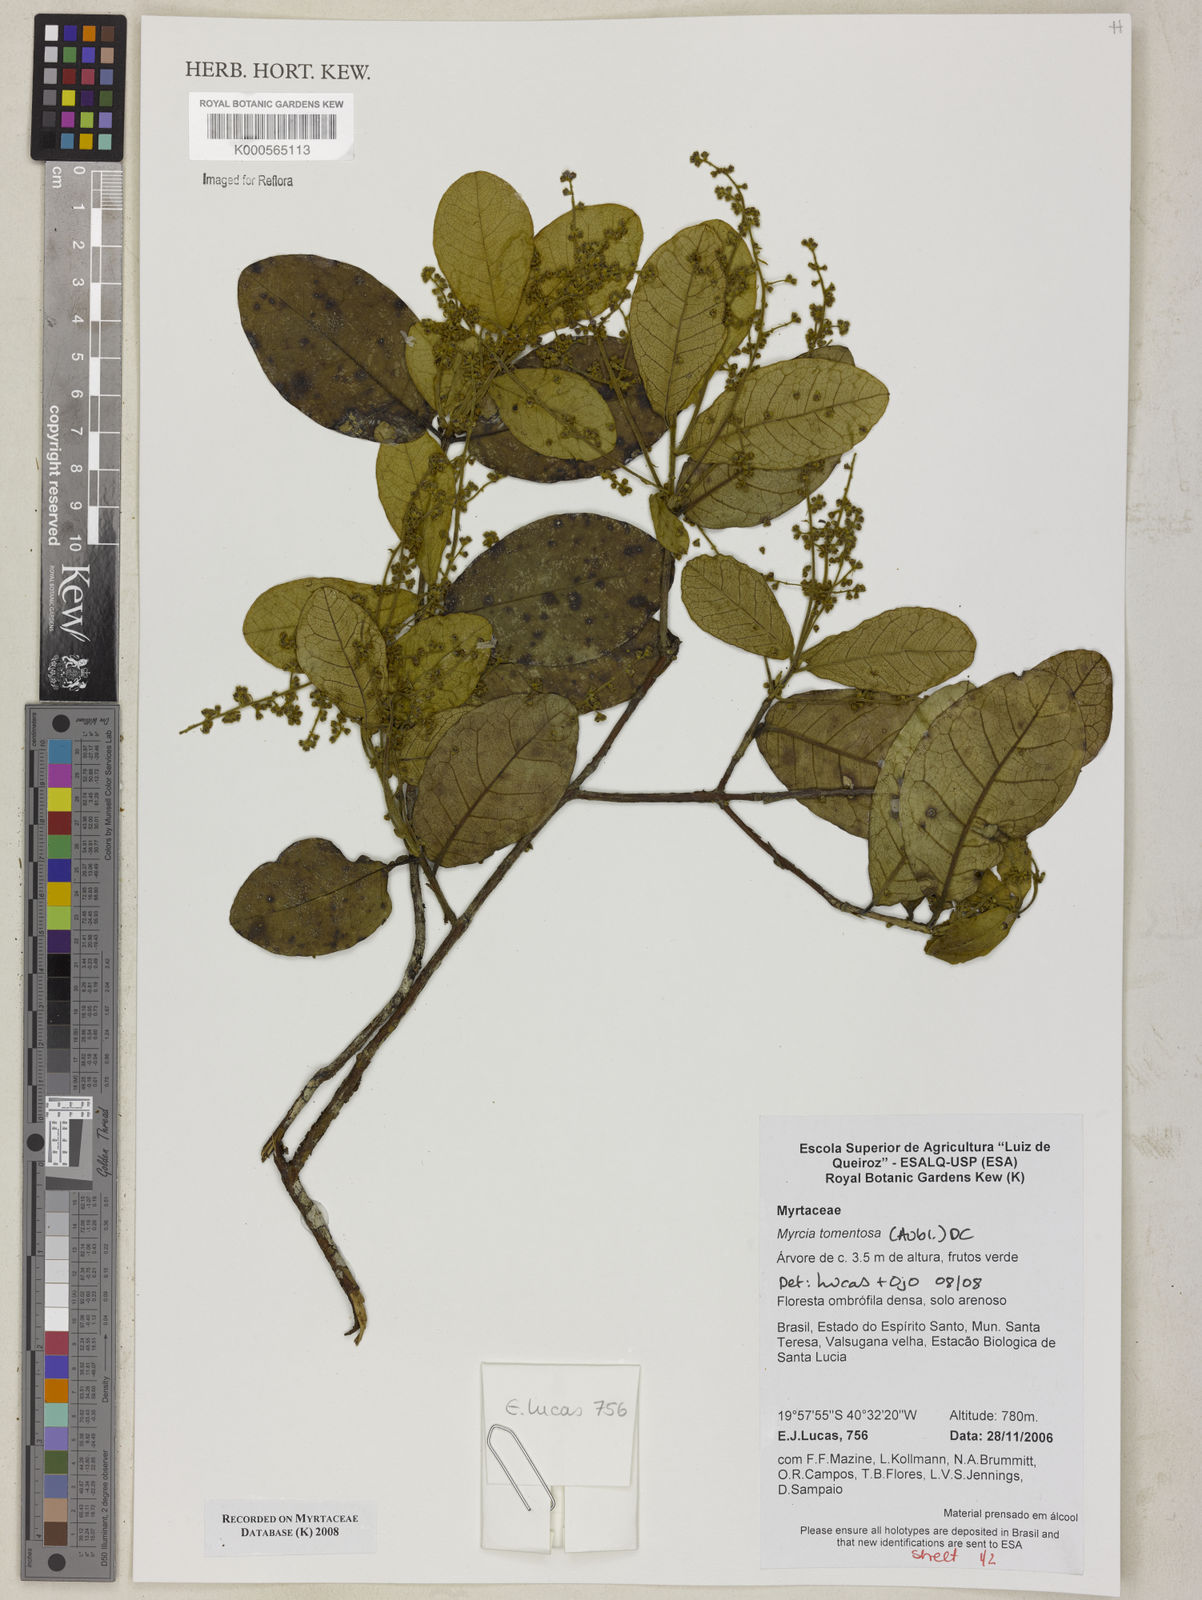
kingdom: Plantae
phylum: Tracheophyta
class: Magnoliopsida
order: Myrtales
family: Myrtaceae
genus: Myrcia
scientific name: Myrcia tomentosa
